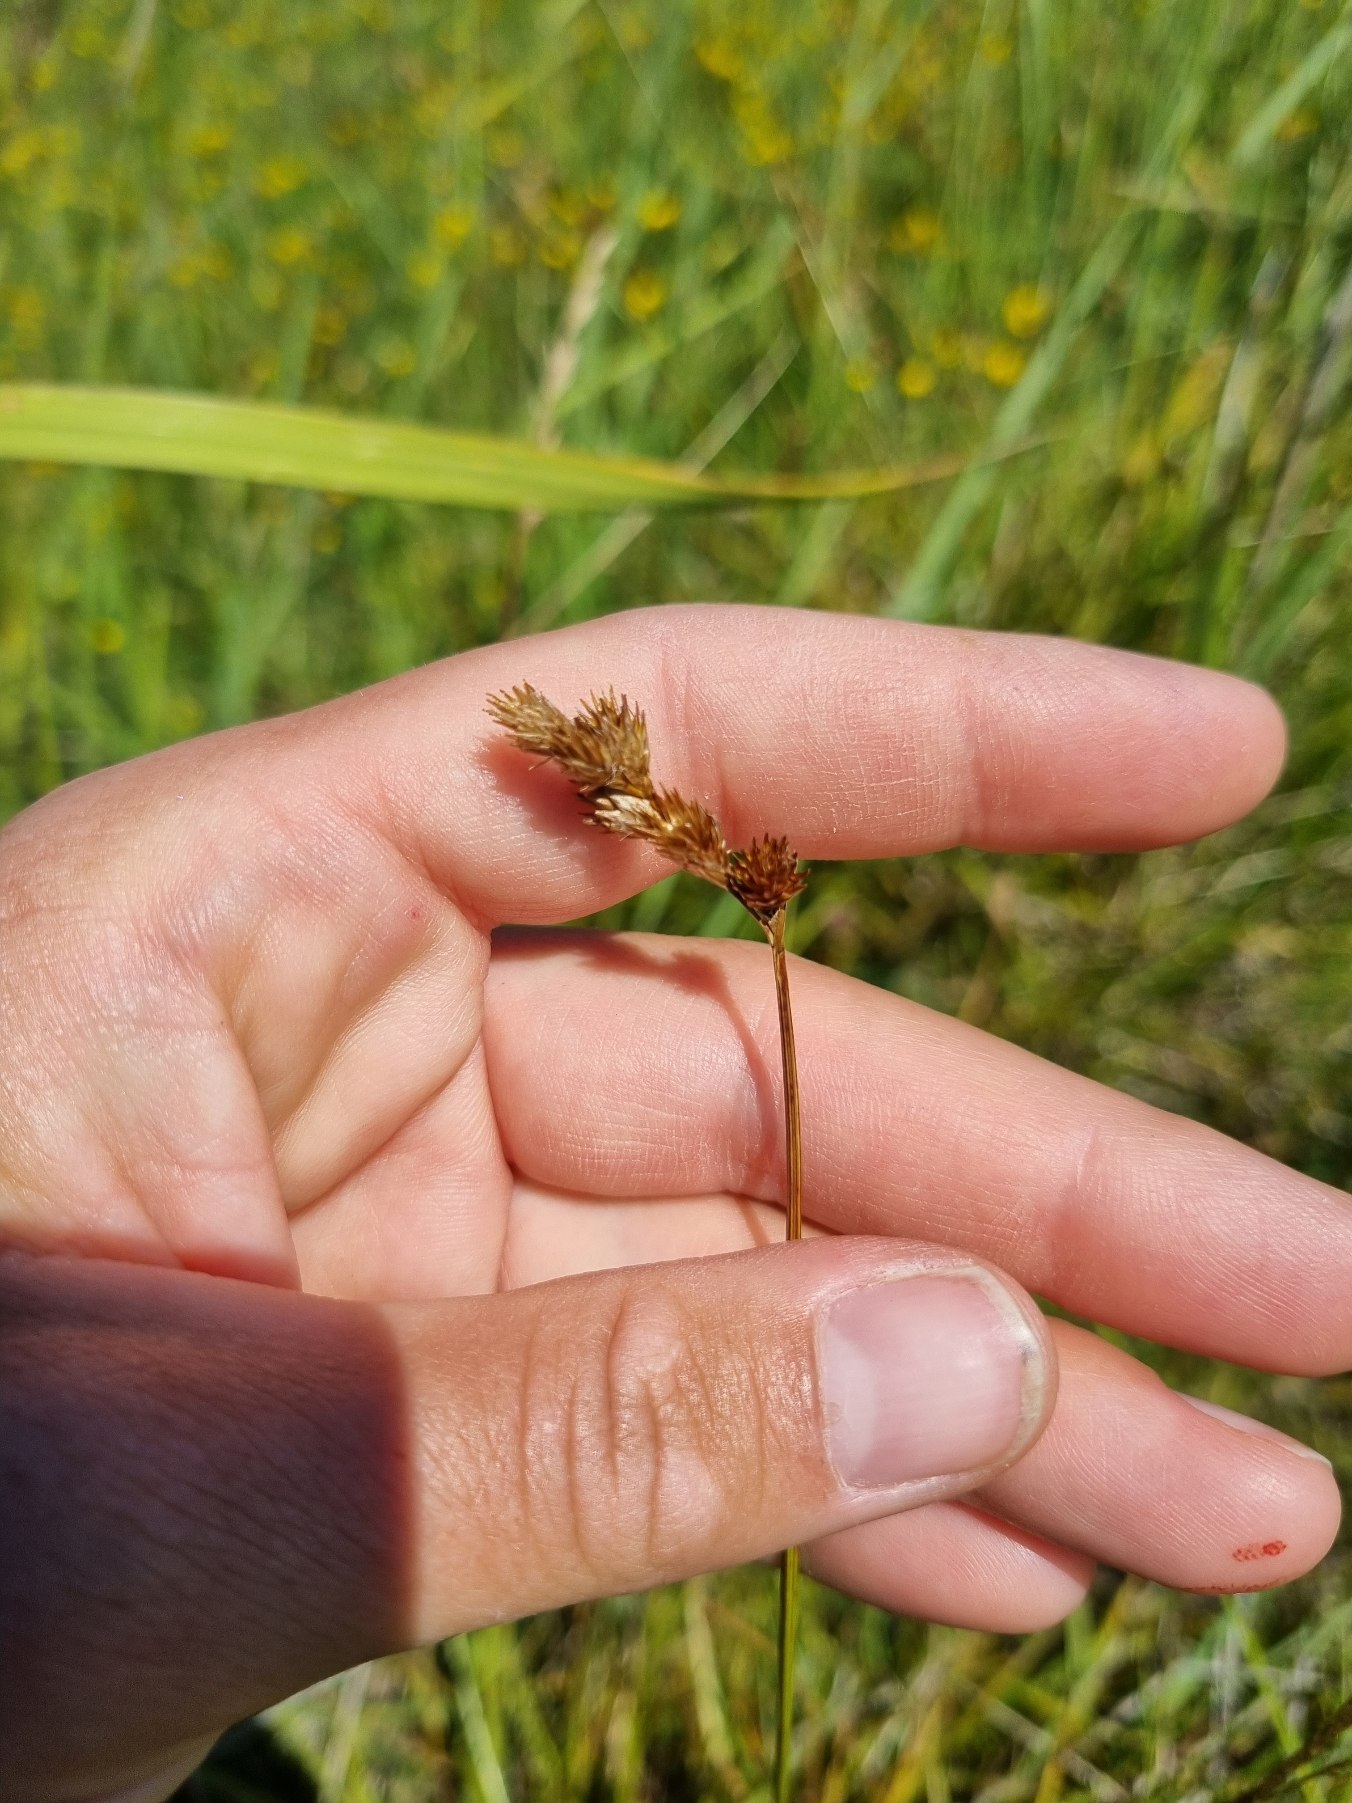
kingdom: Plantae
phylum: Tracheophyta
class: Liliopsida
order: Poales
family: Cyperaceae
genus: Carex
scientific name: Carex leporina
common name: Hare-star
